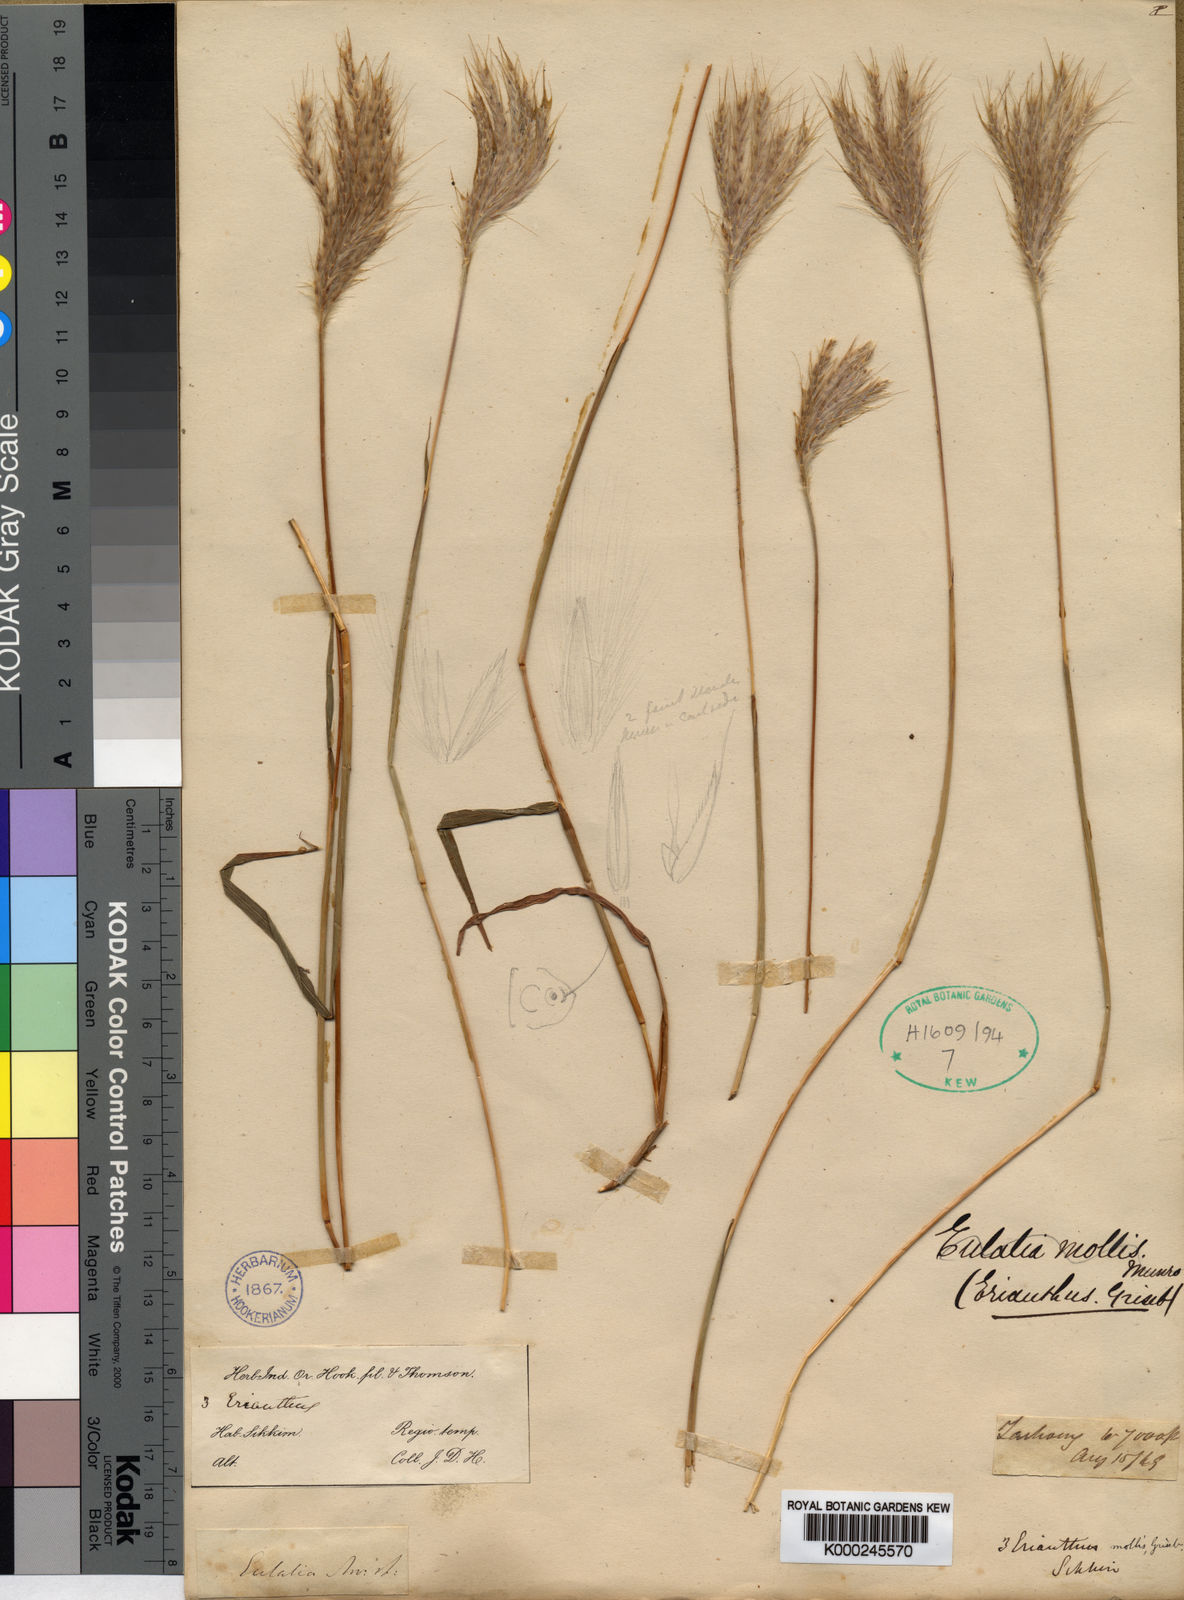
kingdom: Plantae
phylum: Tracheophyta
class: Liliopsida
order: Poales
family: Poaceae
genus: Eulalia
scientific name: Eulalia mollis
